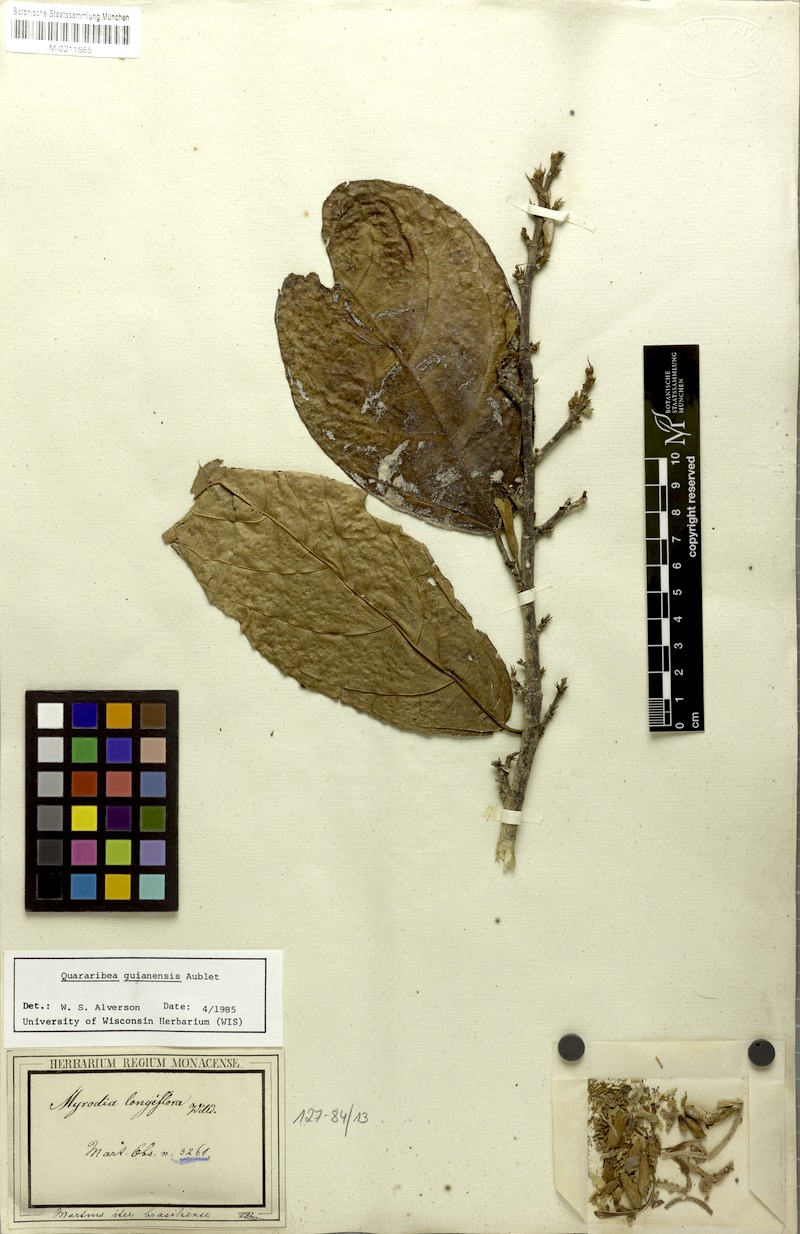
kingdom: Plantae
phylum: Tracheophyta
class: Magnoliopsida
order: Malvales
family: Malvaceae
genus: Quararibea
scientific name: Quararibea guianensis
